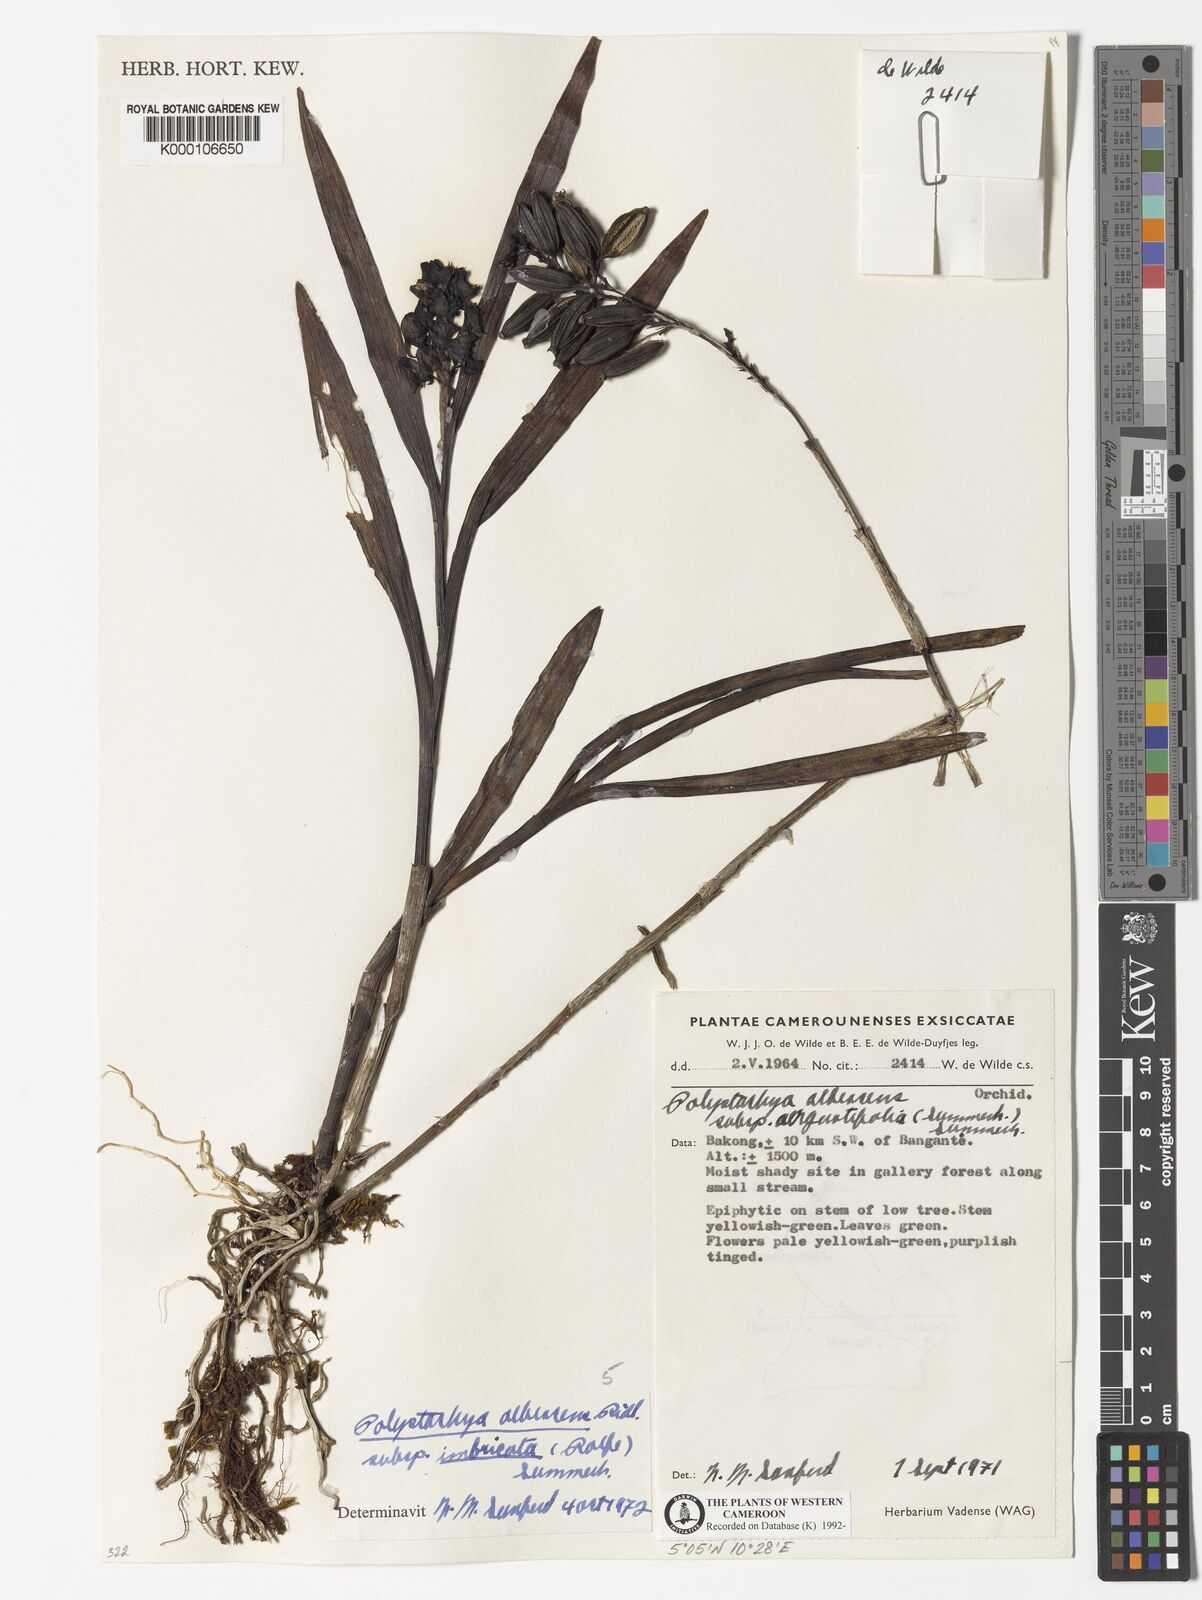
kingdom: Plantae
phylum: Tracheophyta
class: Liliopsida
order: Asparagales
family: Orchidaceae
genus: Polystachya
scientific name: Polystachya albescens
